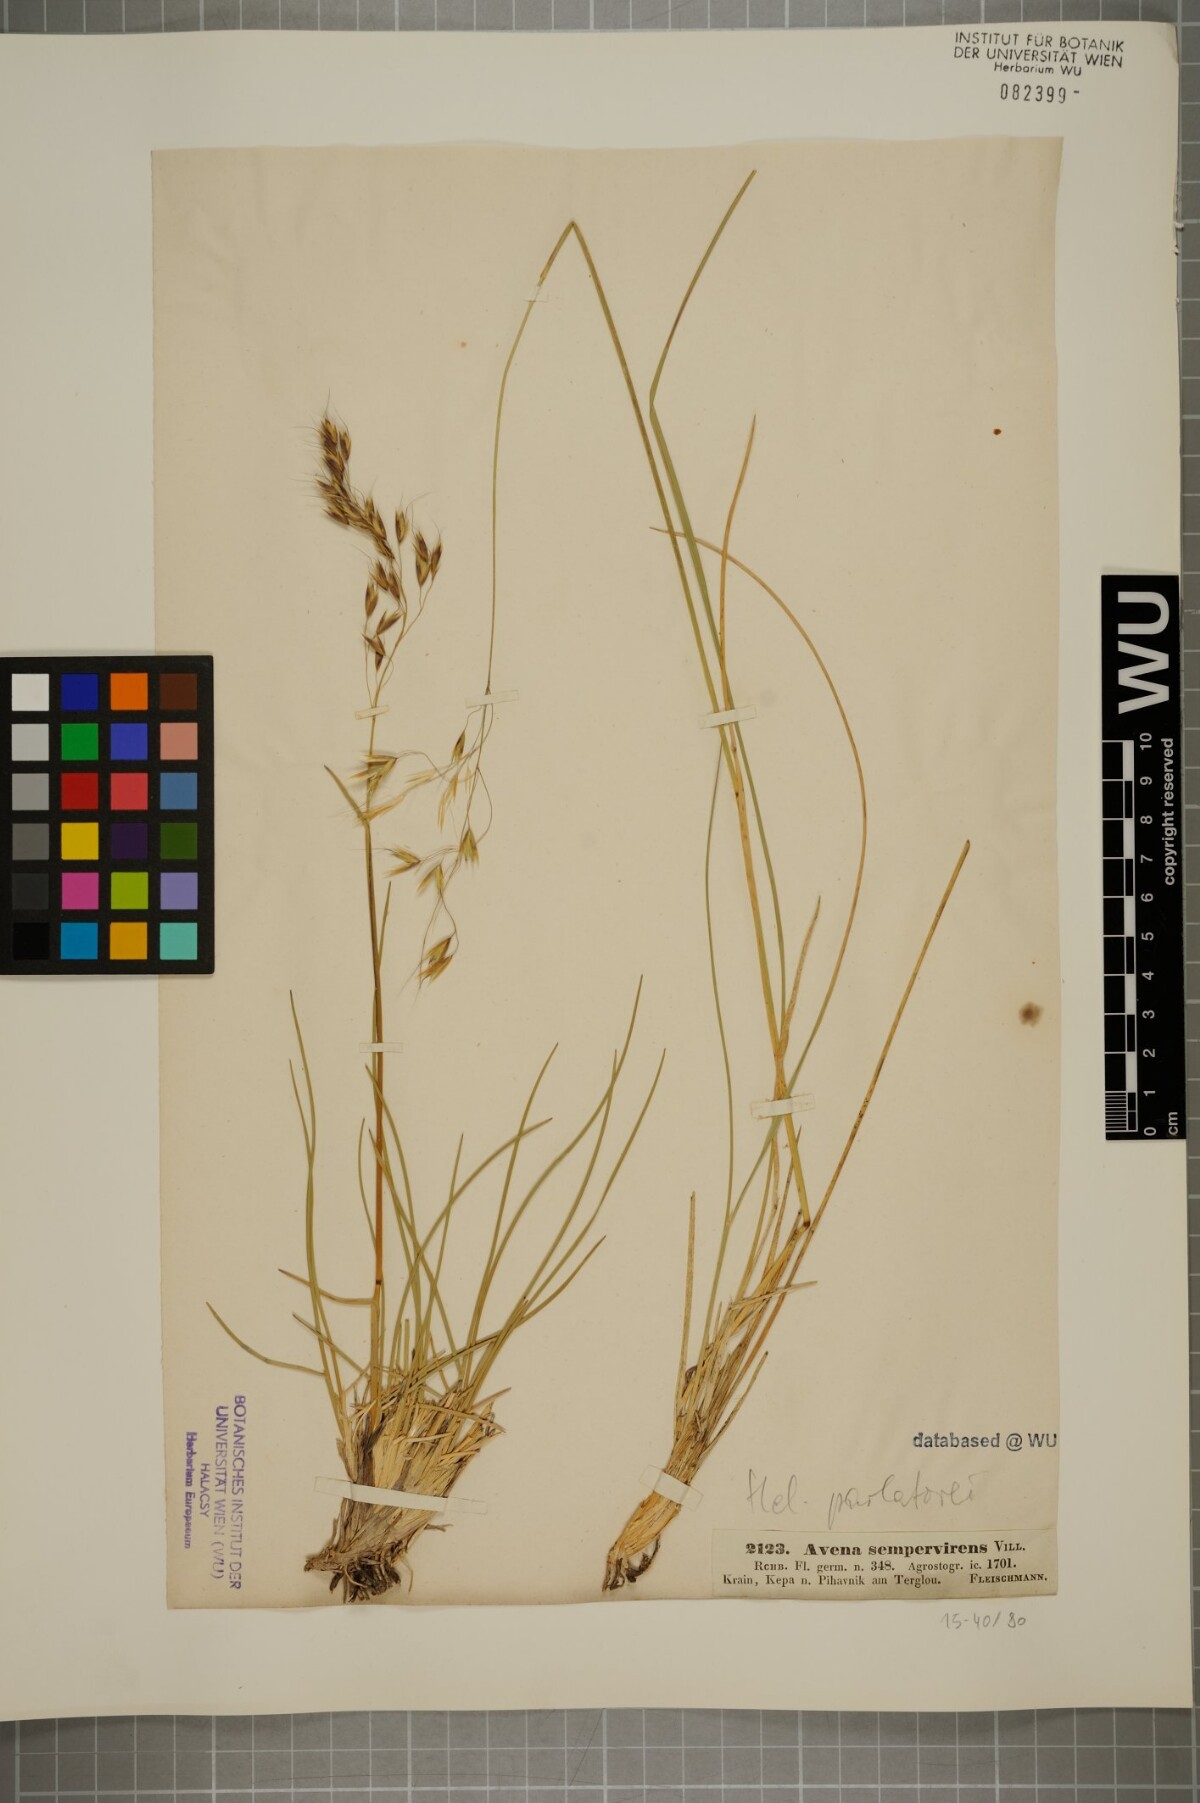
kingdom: Plantae
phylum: Tracheophyta
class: Liliopsida
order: Poales
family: Poaceae
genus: Helictotrichon
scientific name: Helictotrichon parlatorei
